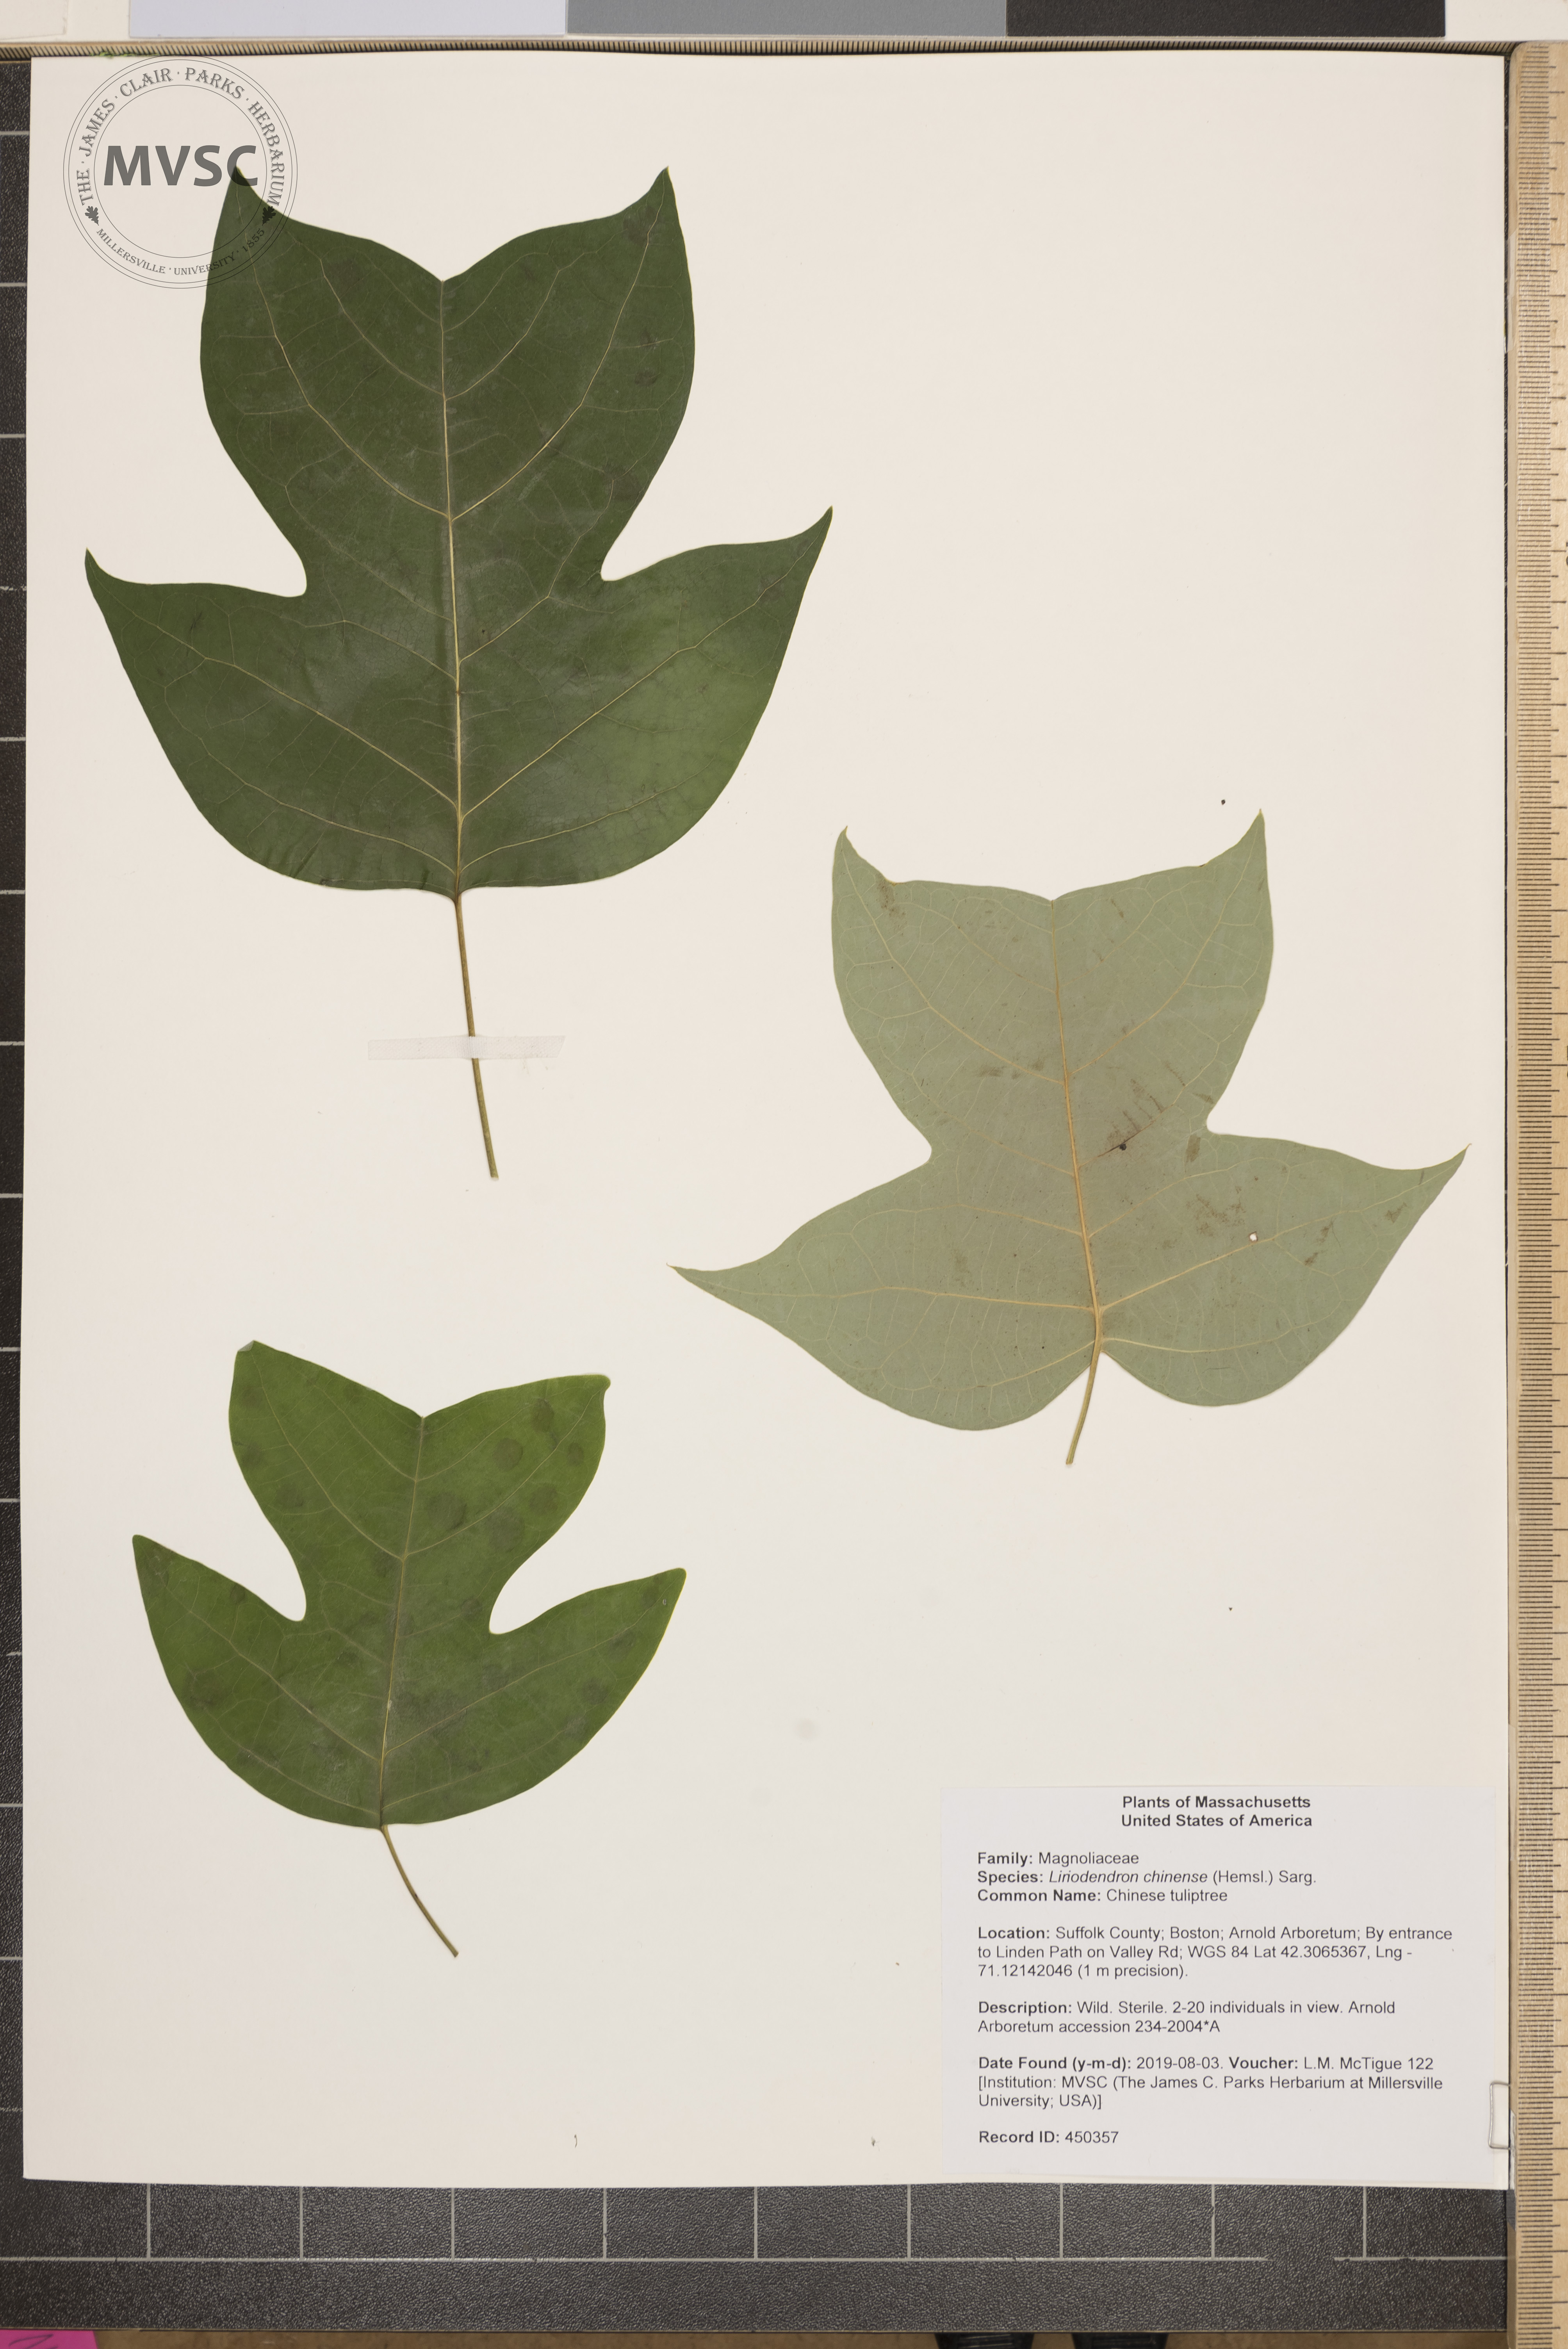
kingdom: Plantae
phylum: Tracheophyta
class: Magnoliopsida
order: Magnoliales
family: Magnoliaceae
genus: Liriodendron
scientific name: Liriodendron chinense
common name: Chinese tuliptree
